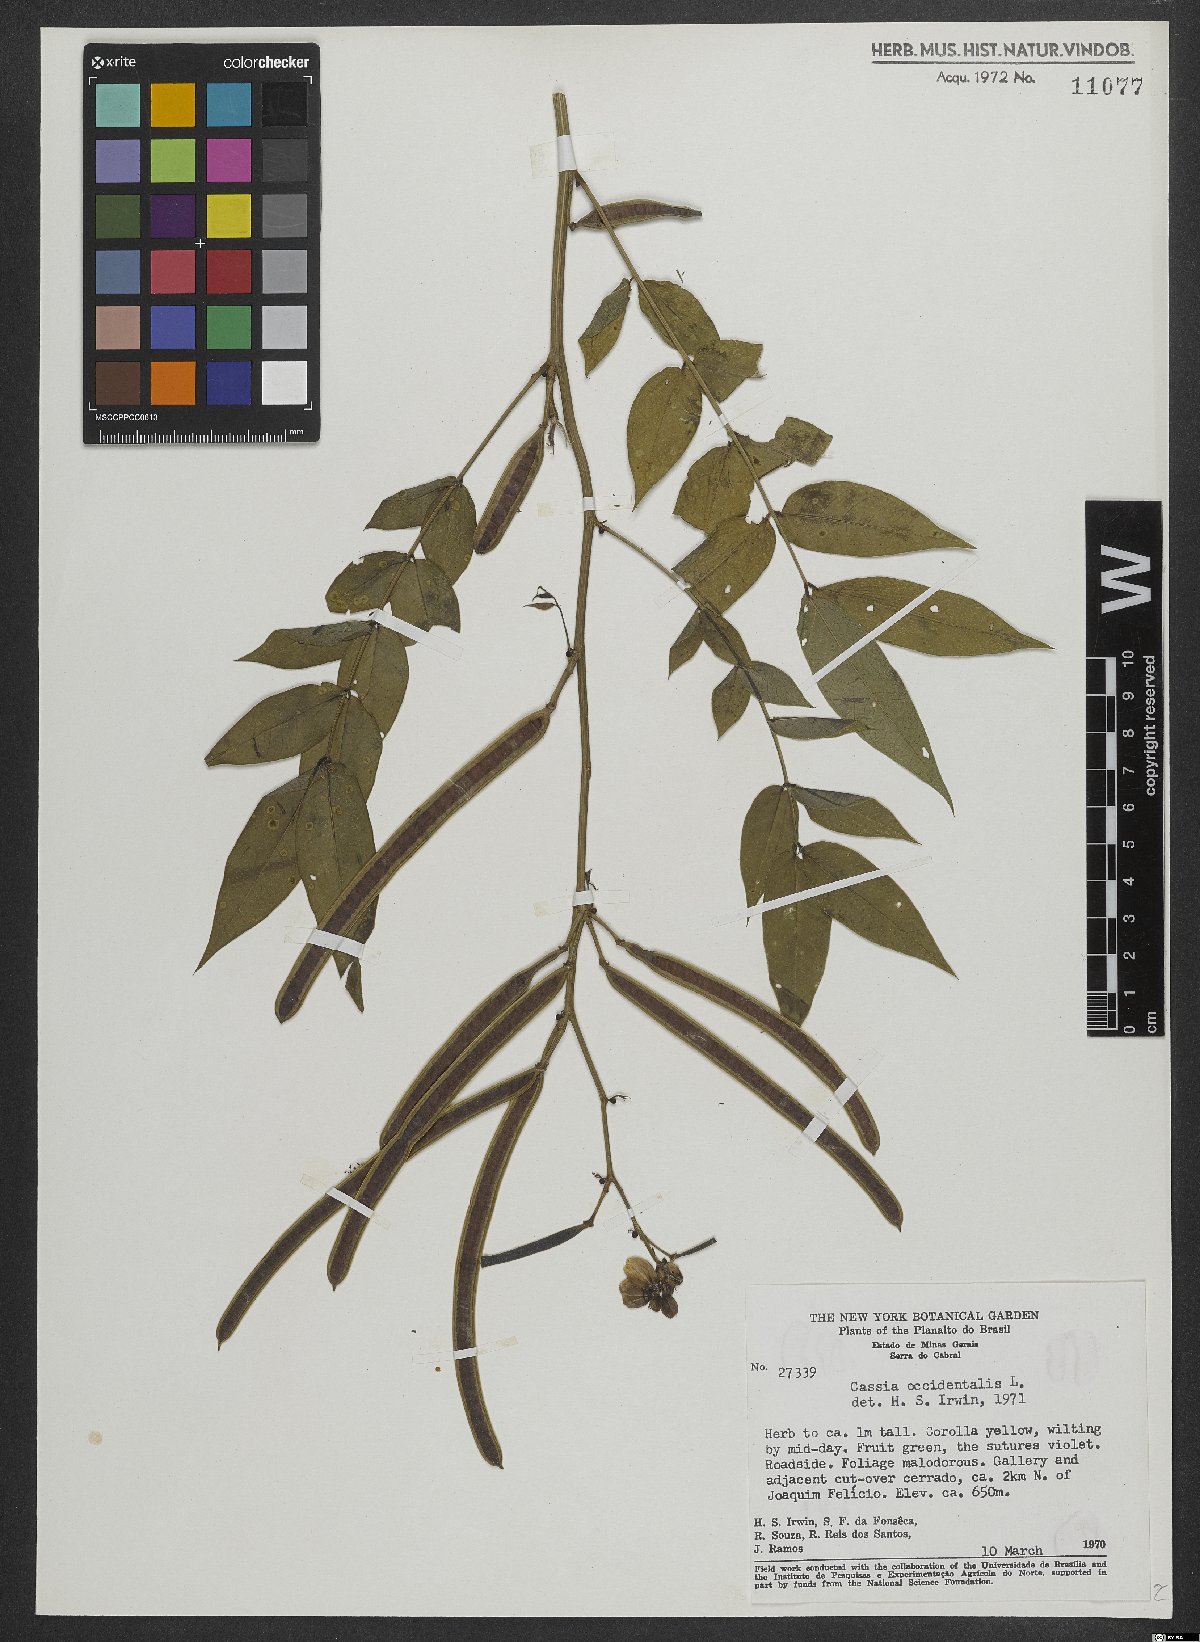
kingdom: Plantae
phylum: Tracheophyta
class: Magnoliopsida
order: Fabales
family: Fabaceae
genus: Senna
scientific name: Senna occidentalis
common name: Septicweed
